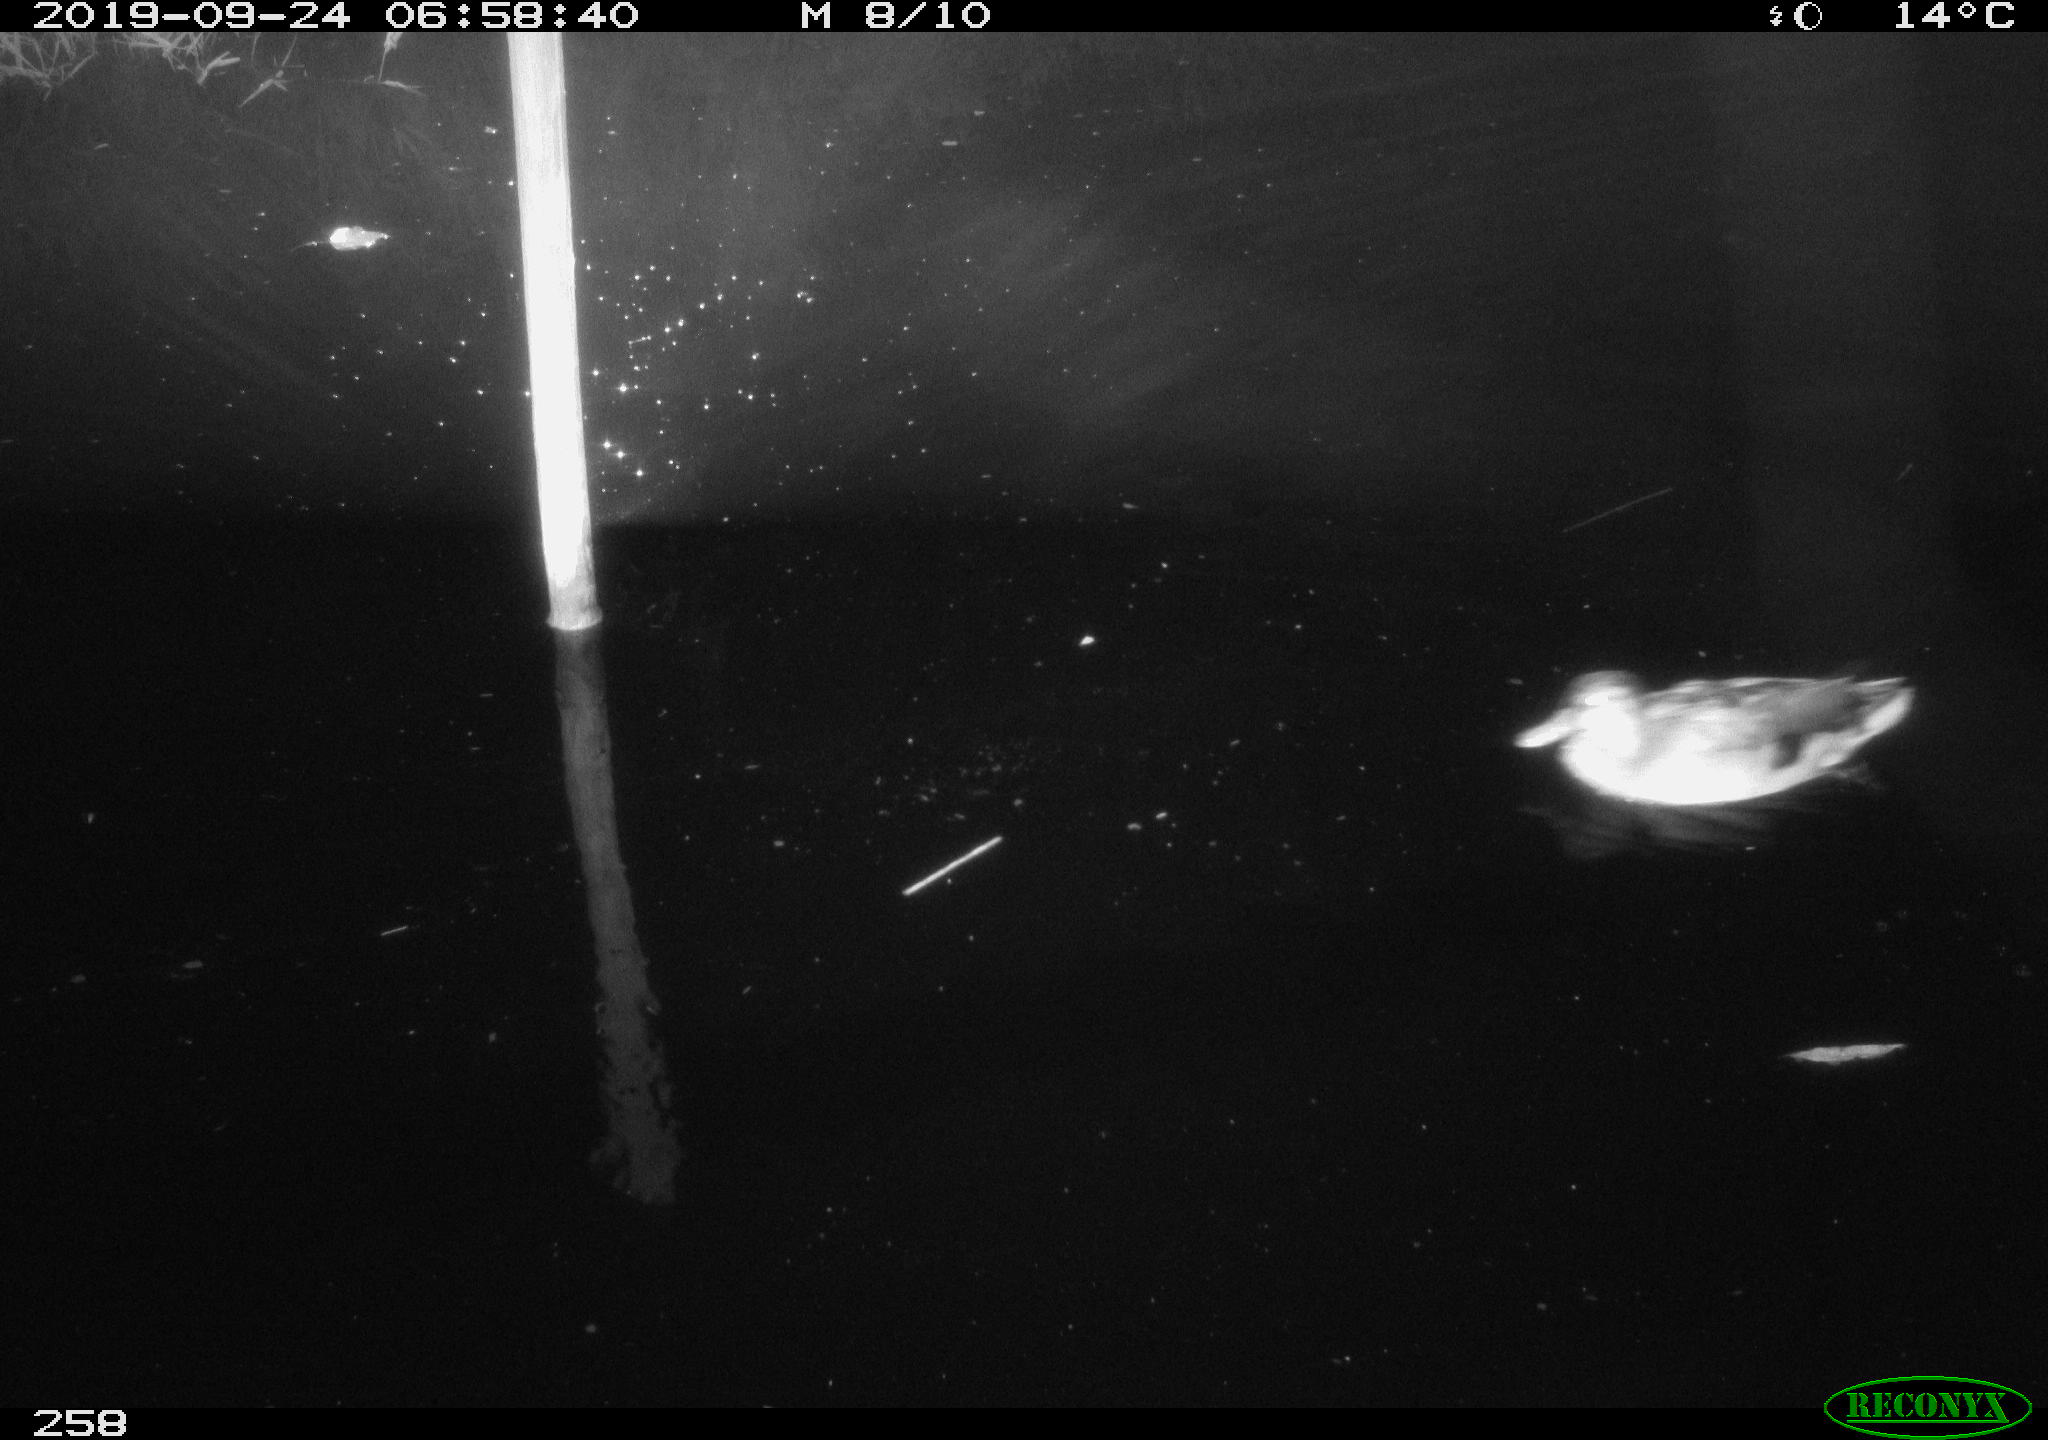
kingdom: Animalia
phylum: Chordata
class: Aves
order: Anseriformes
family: Anatidae
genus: Anas
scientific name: Anas platyrhynchos
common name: Mallard
